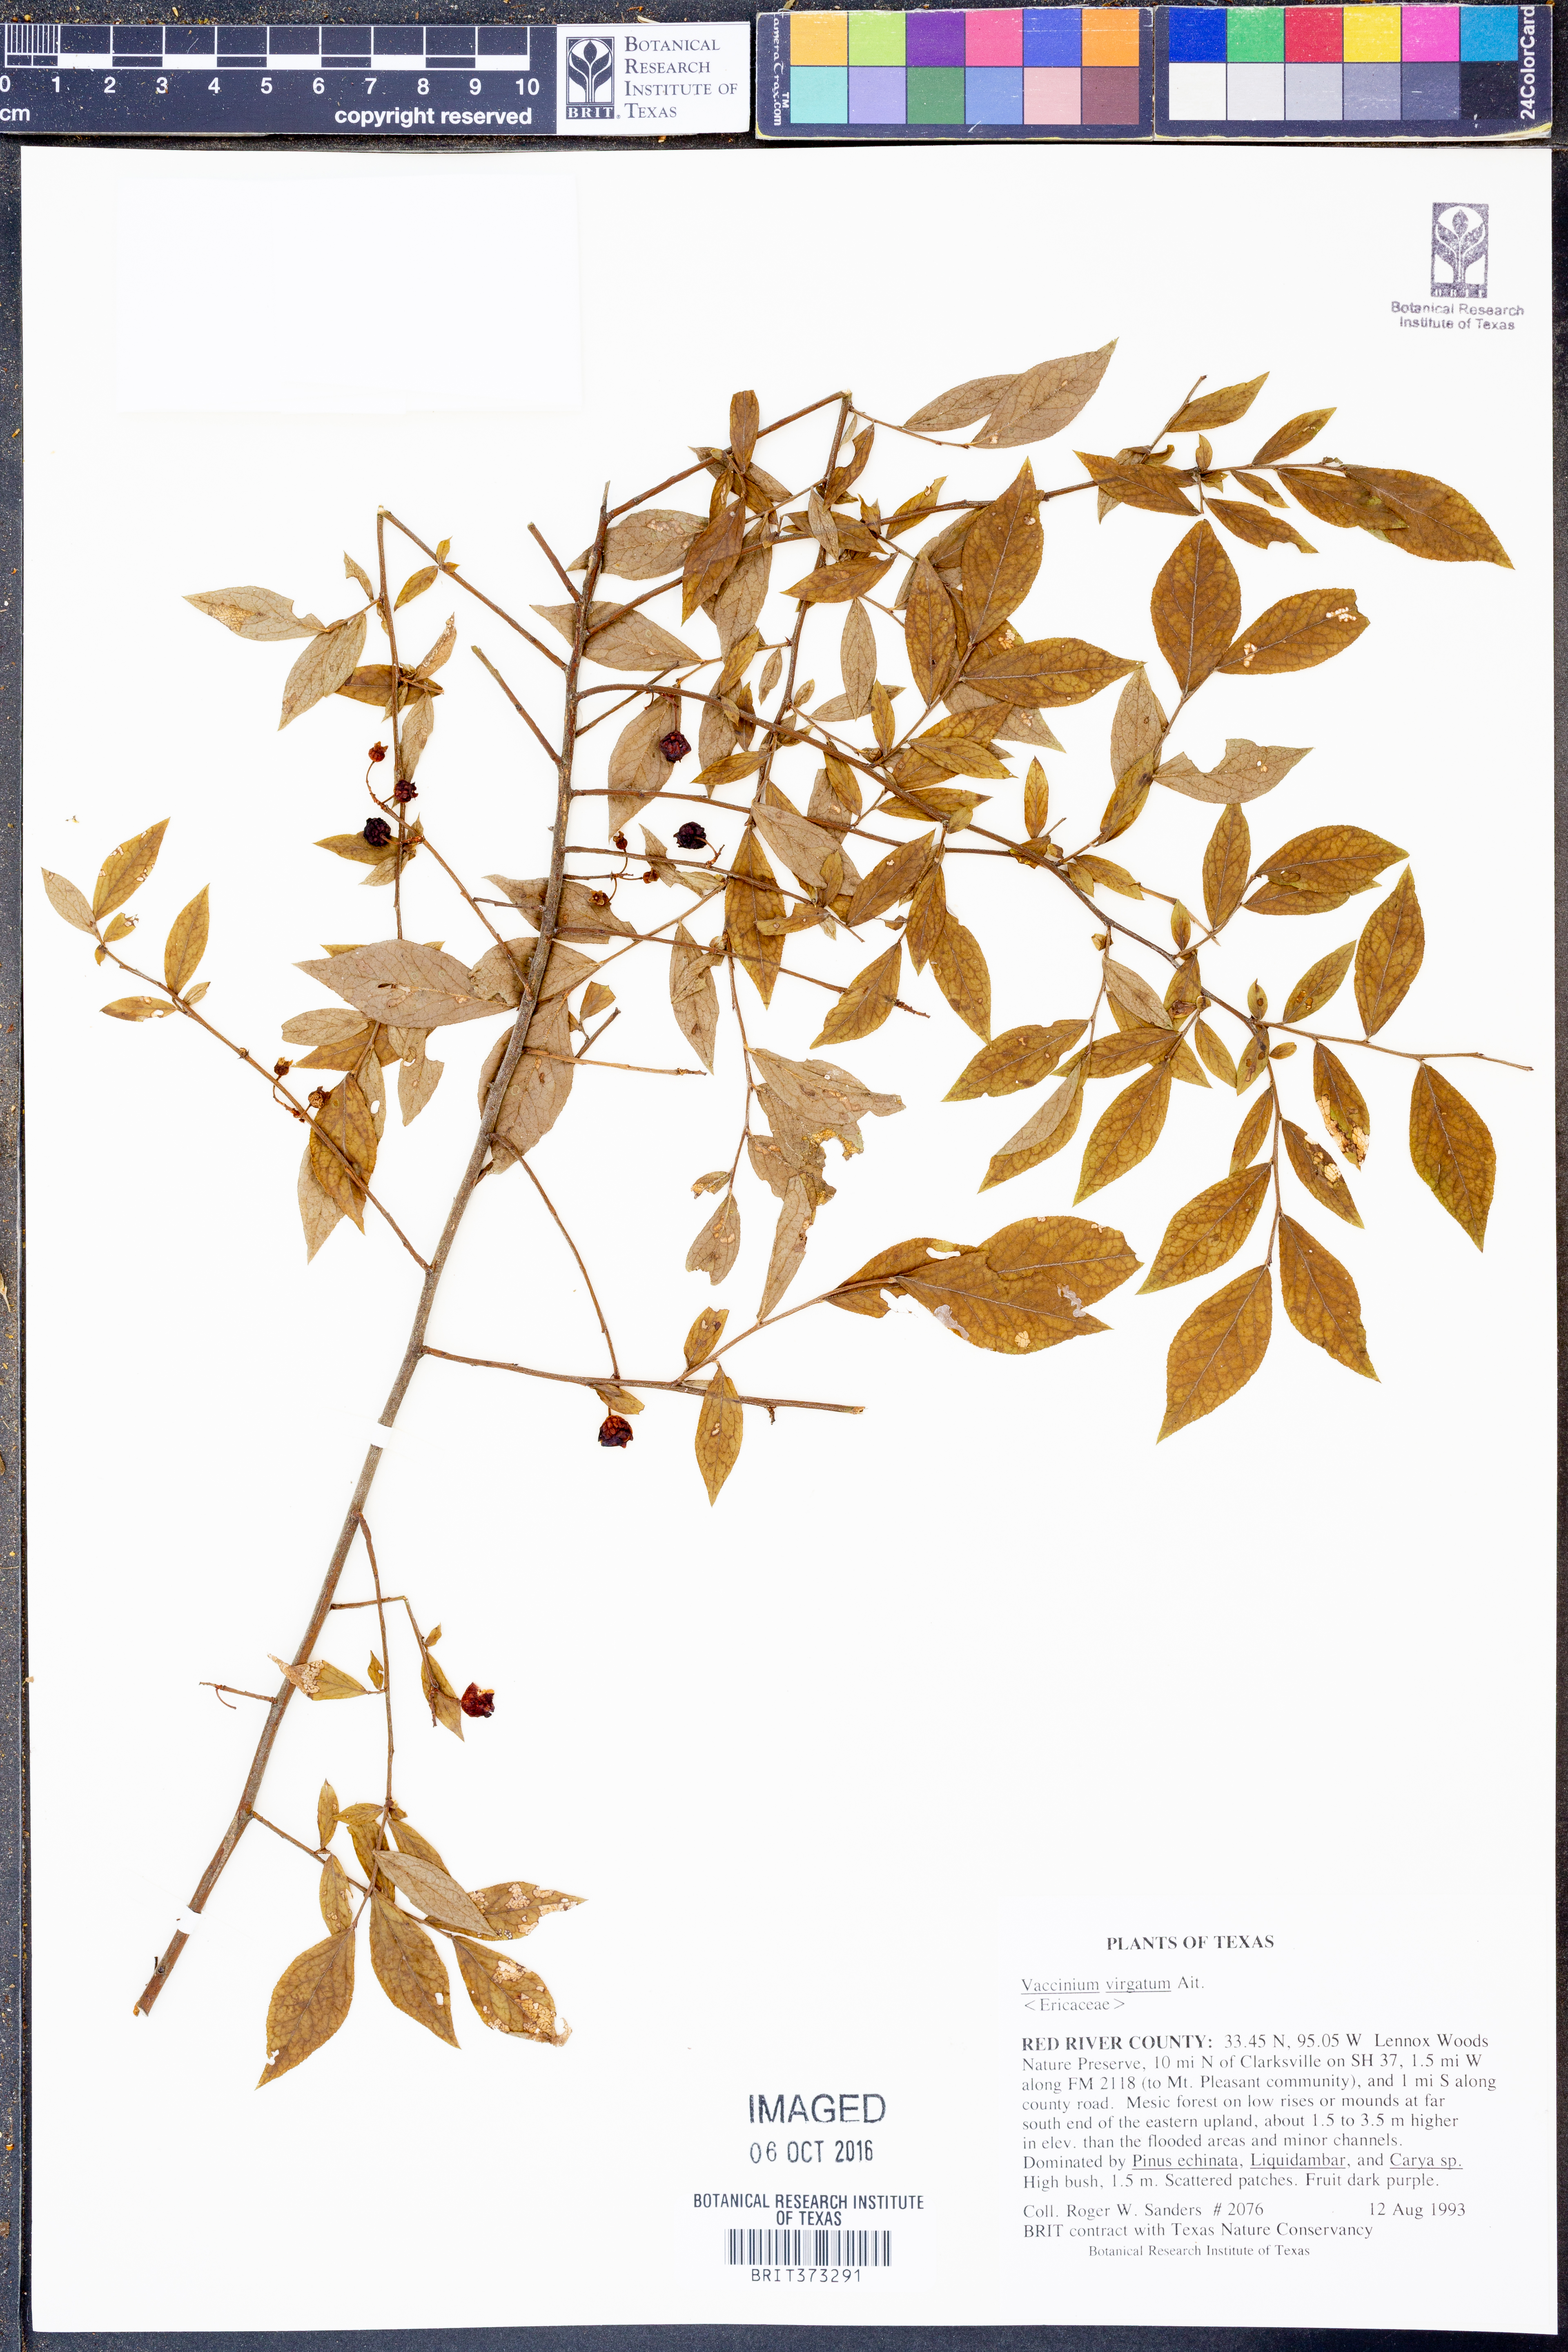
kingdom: Plantae
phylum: Tracheophyta
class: Magnoliopsida
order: Ericales
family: Ericaceae
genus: Vaccinium
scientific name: Vaccinium corymbosum
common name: Blueberry
